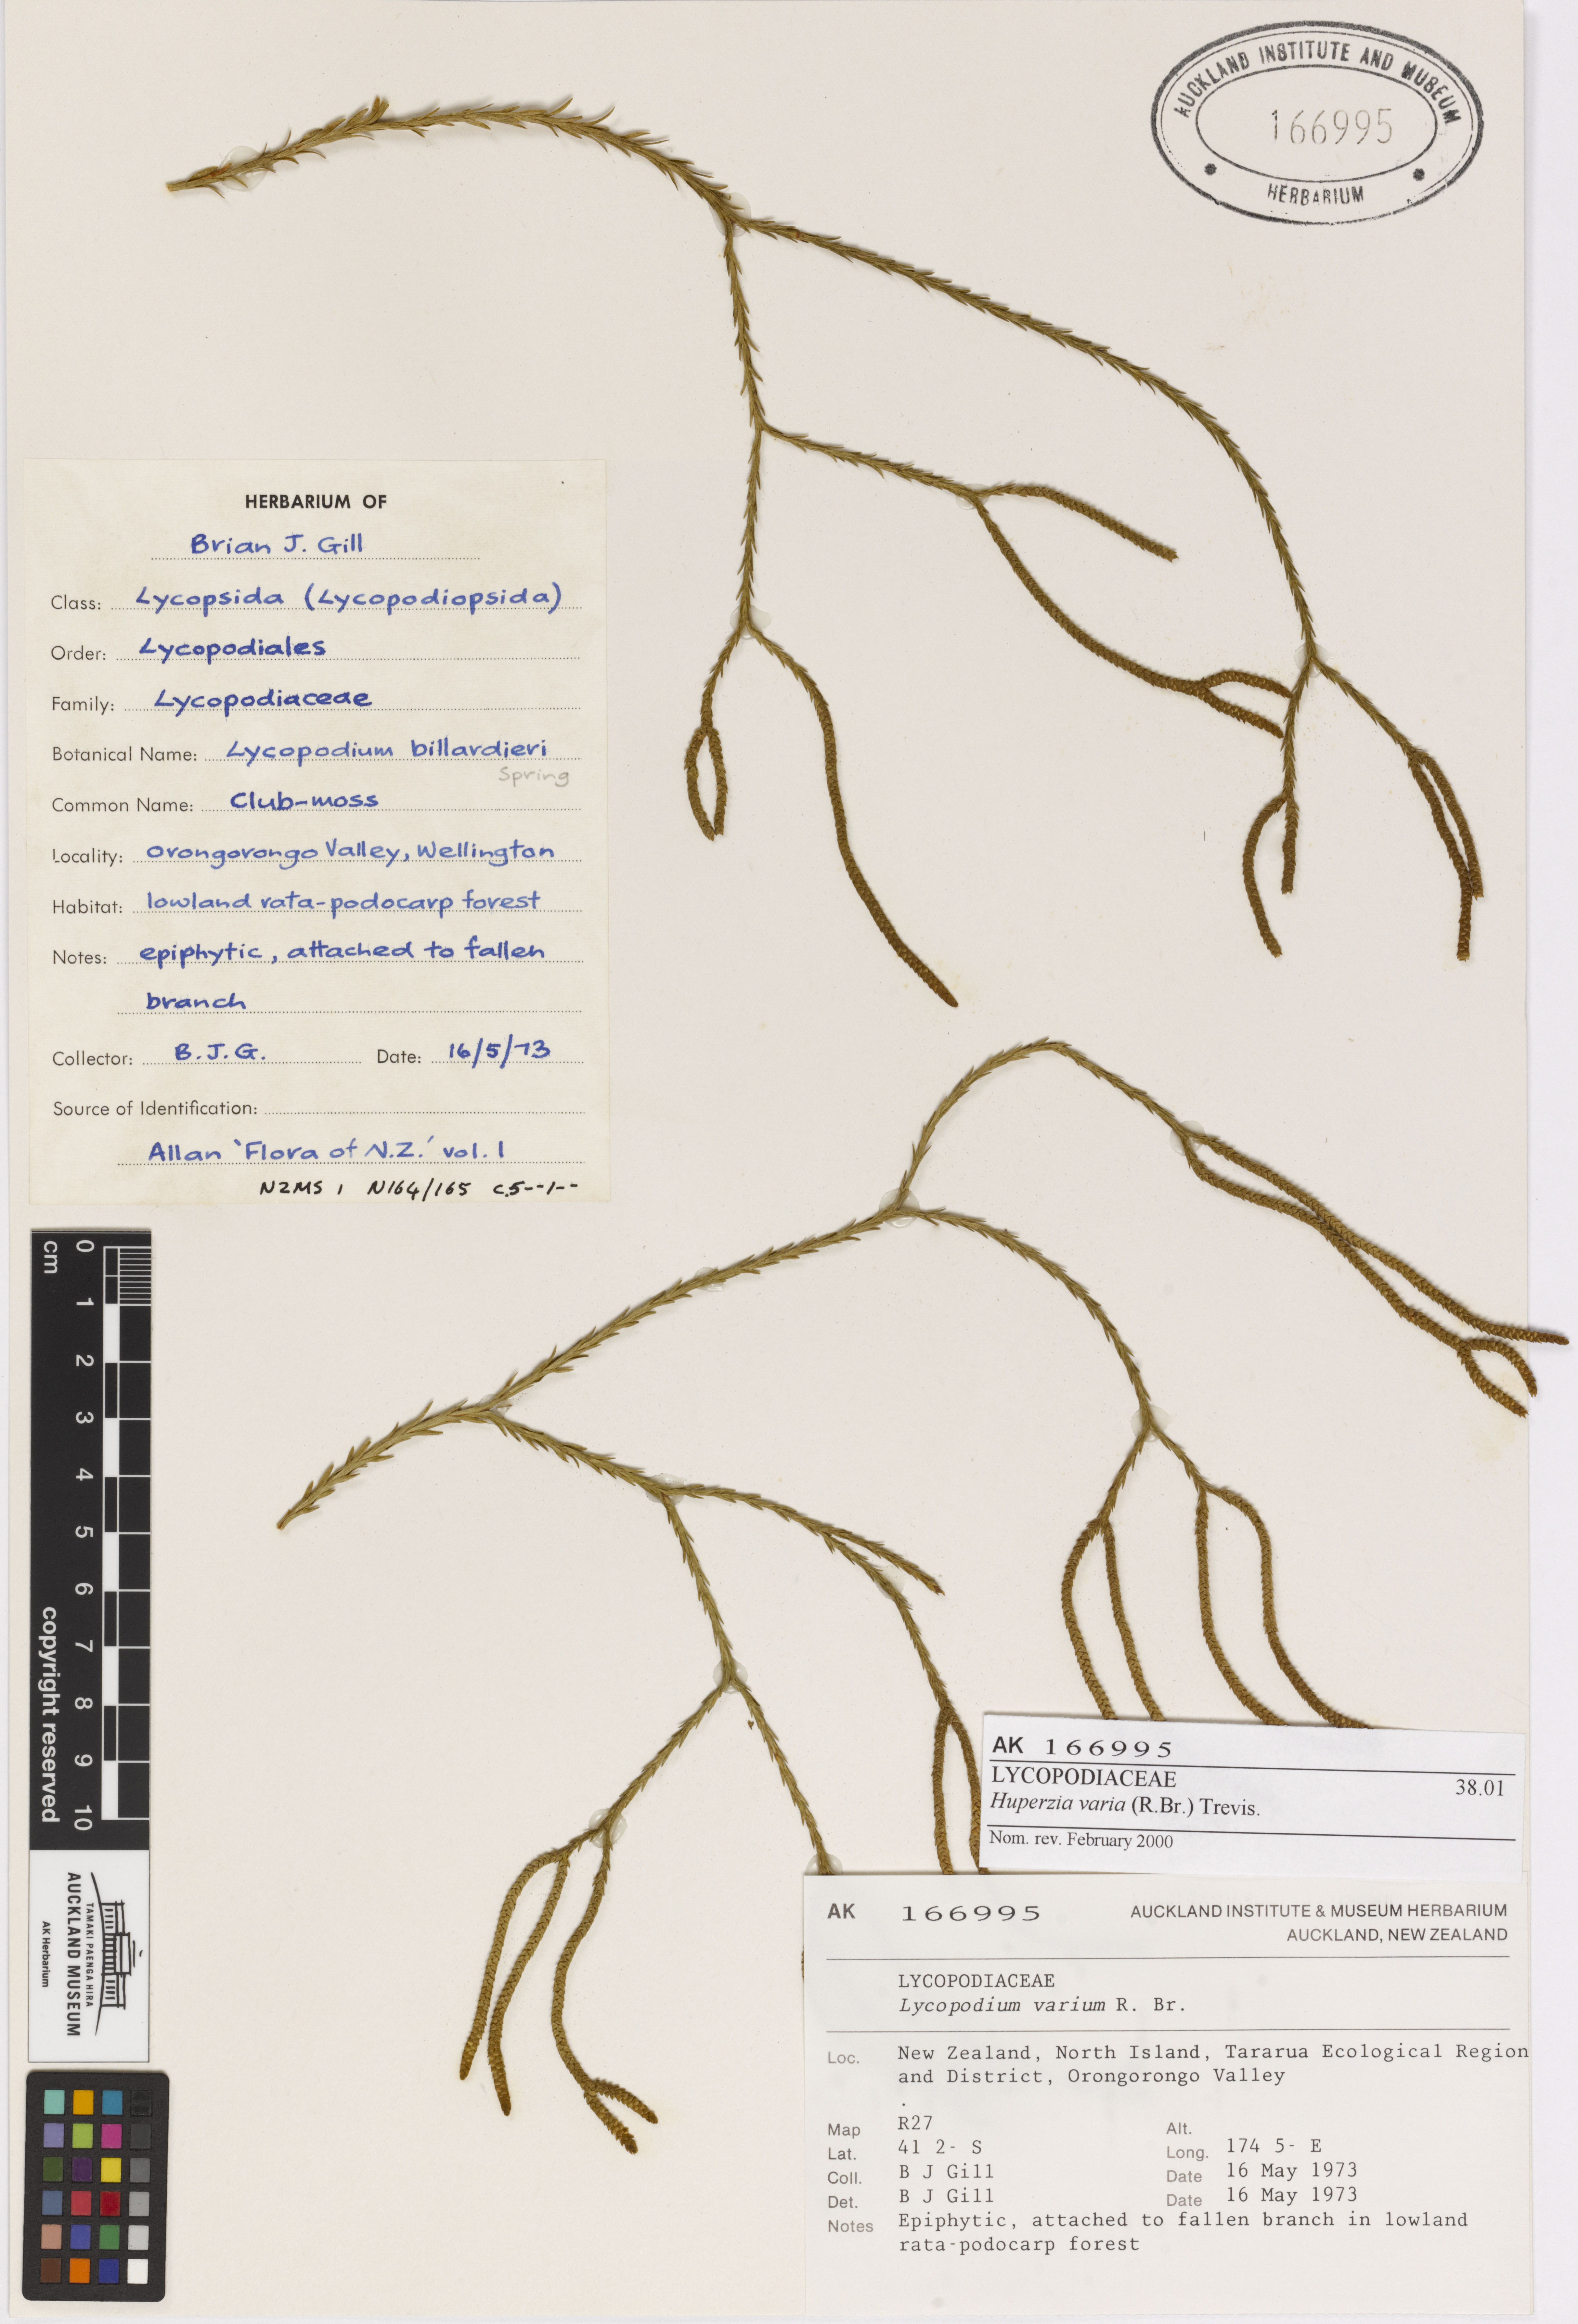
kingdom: Plantae
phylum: Tracheophyta
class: Lycopodiopsida
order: Lycopodiales
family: Lycopodiaceae
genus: Phlegmariurus
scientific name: Phlegmariurus billardierei
